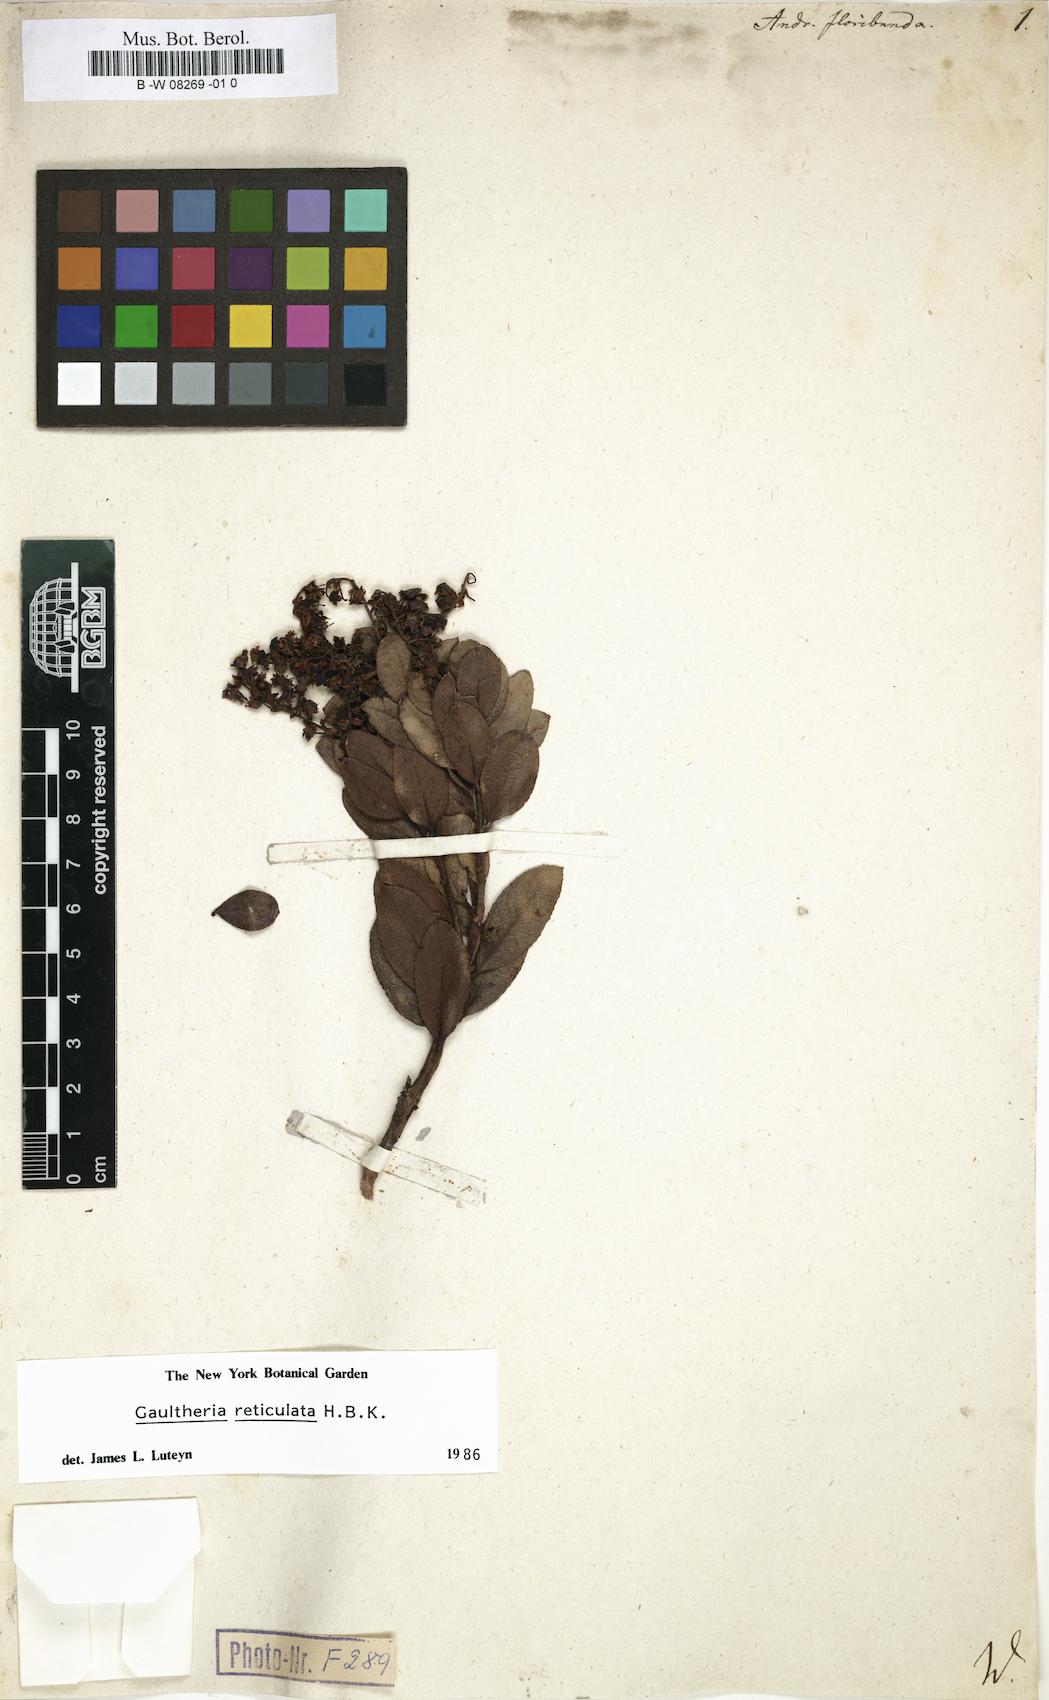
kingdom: Plantae
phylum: Tracheophyta
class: Magnoliopsida
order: Ericales
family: Ericaceae
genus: Pieris
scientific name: Pieris floribunda
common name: Flutterbush
